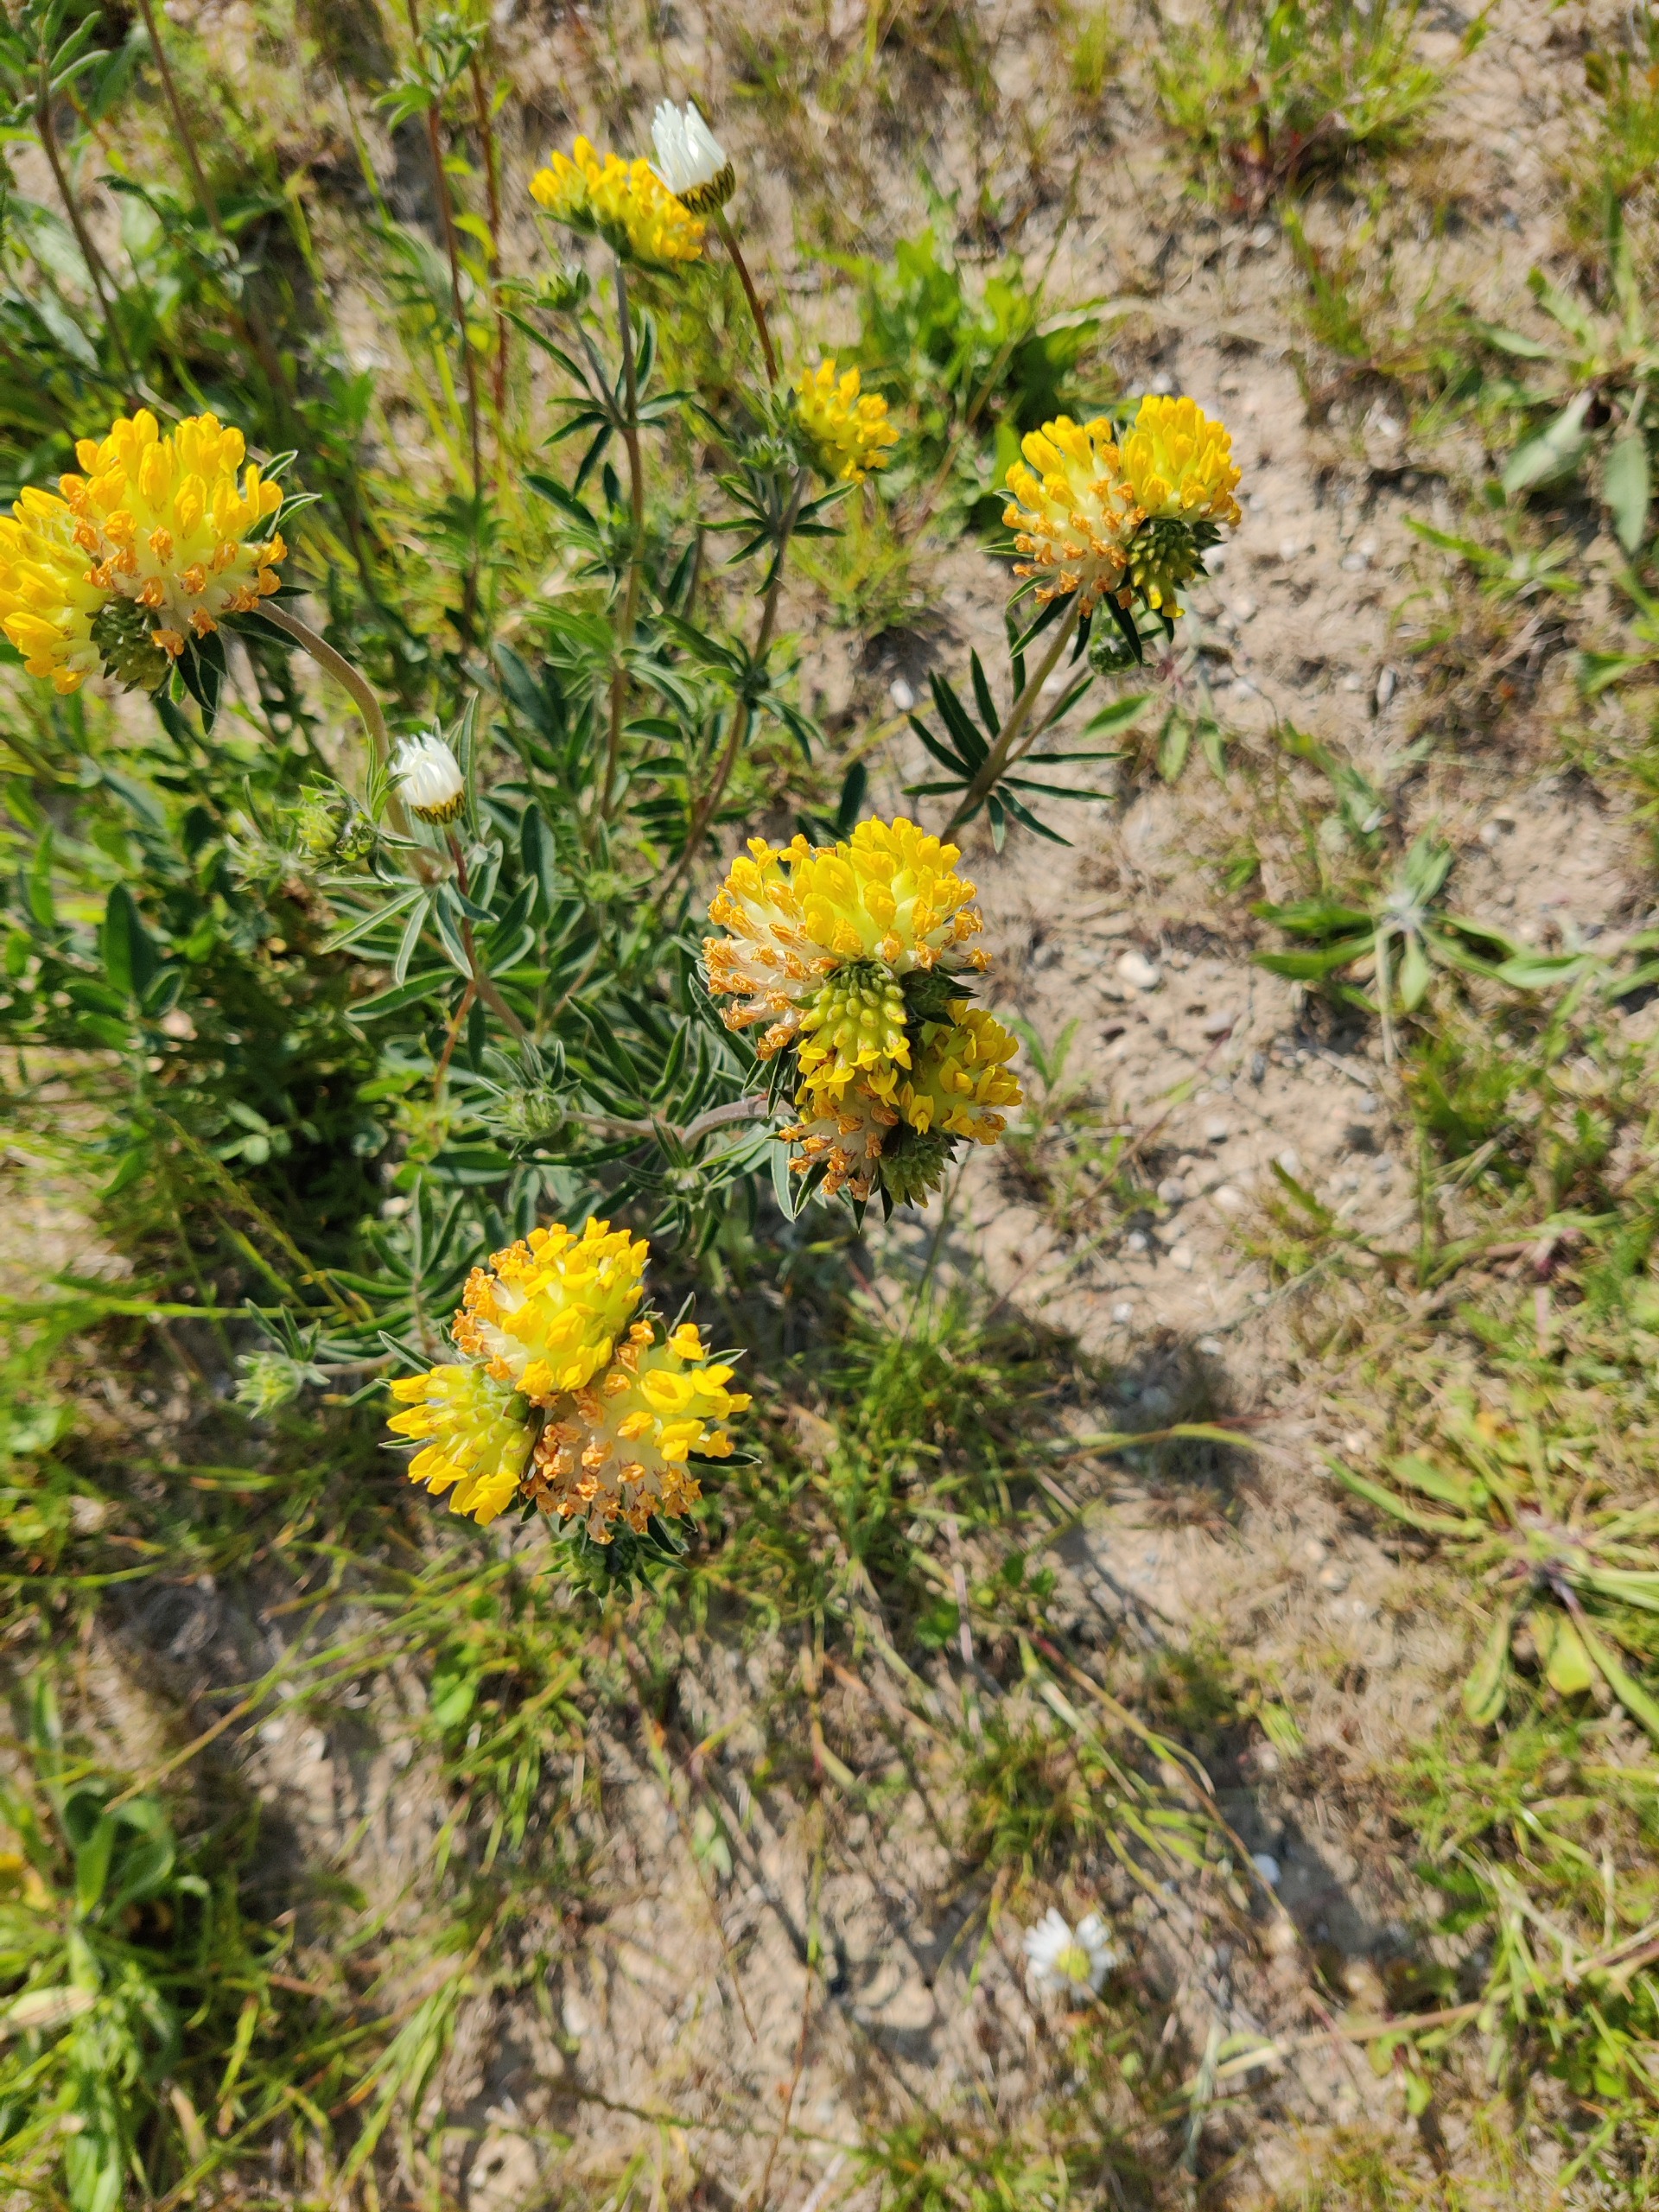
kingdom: Plantae
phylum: Tracheophyta
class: Magnoliopsida
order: Fabales
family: Fabaceae
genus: Anthyllis
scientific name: Anthyllis vulneraria
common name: Rundbælg
